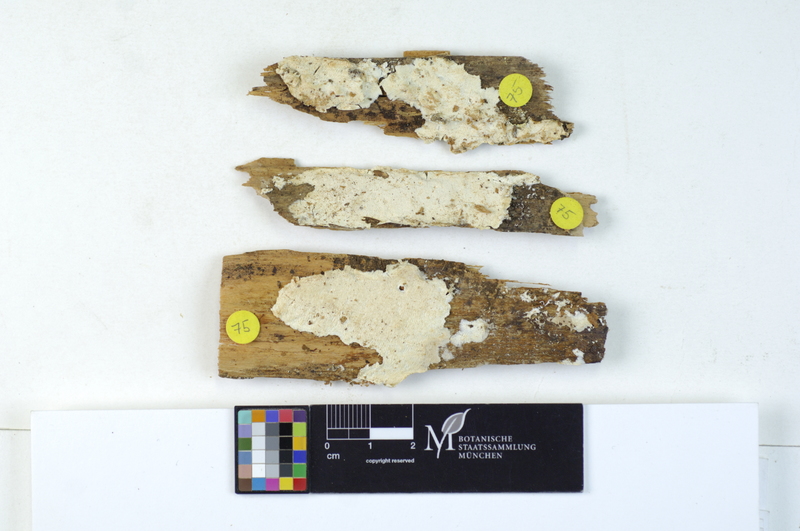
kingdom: Fungi
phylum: Basidiomycota
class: Agaricomycetes
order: Polyporales
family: Dacryobolaceae
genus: Postia
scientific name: Postia sericeomollis
